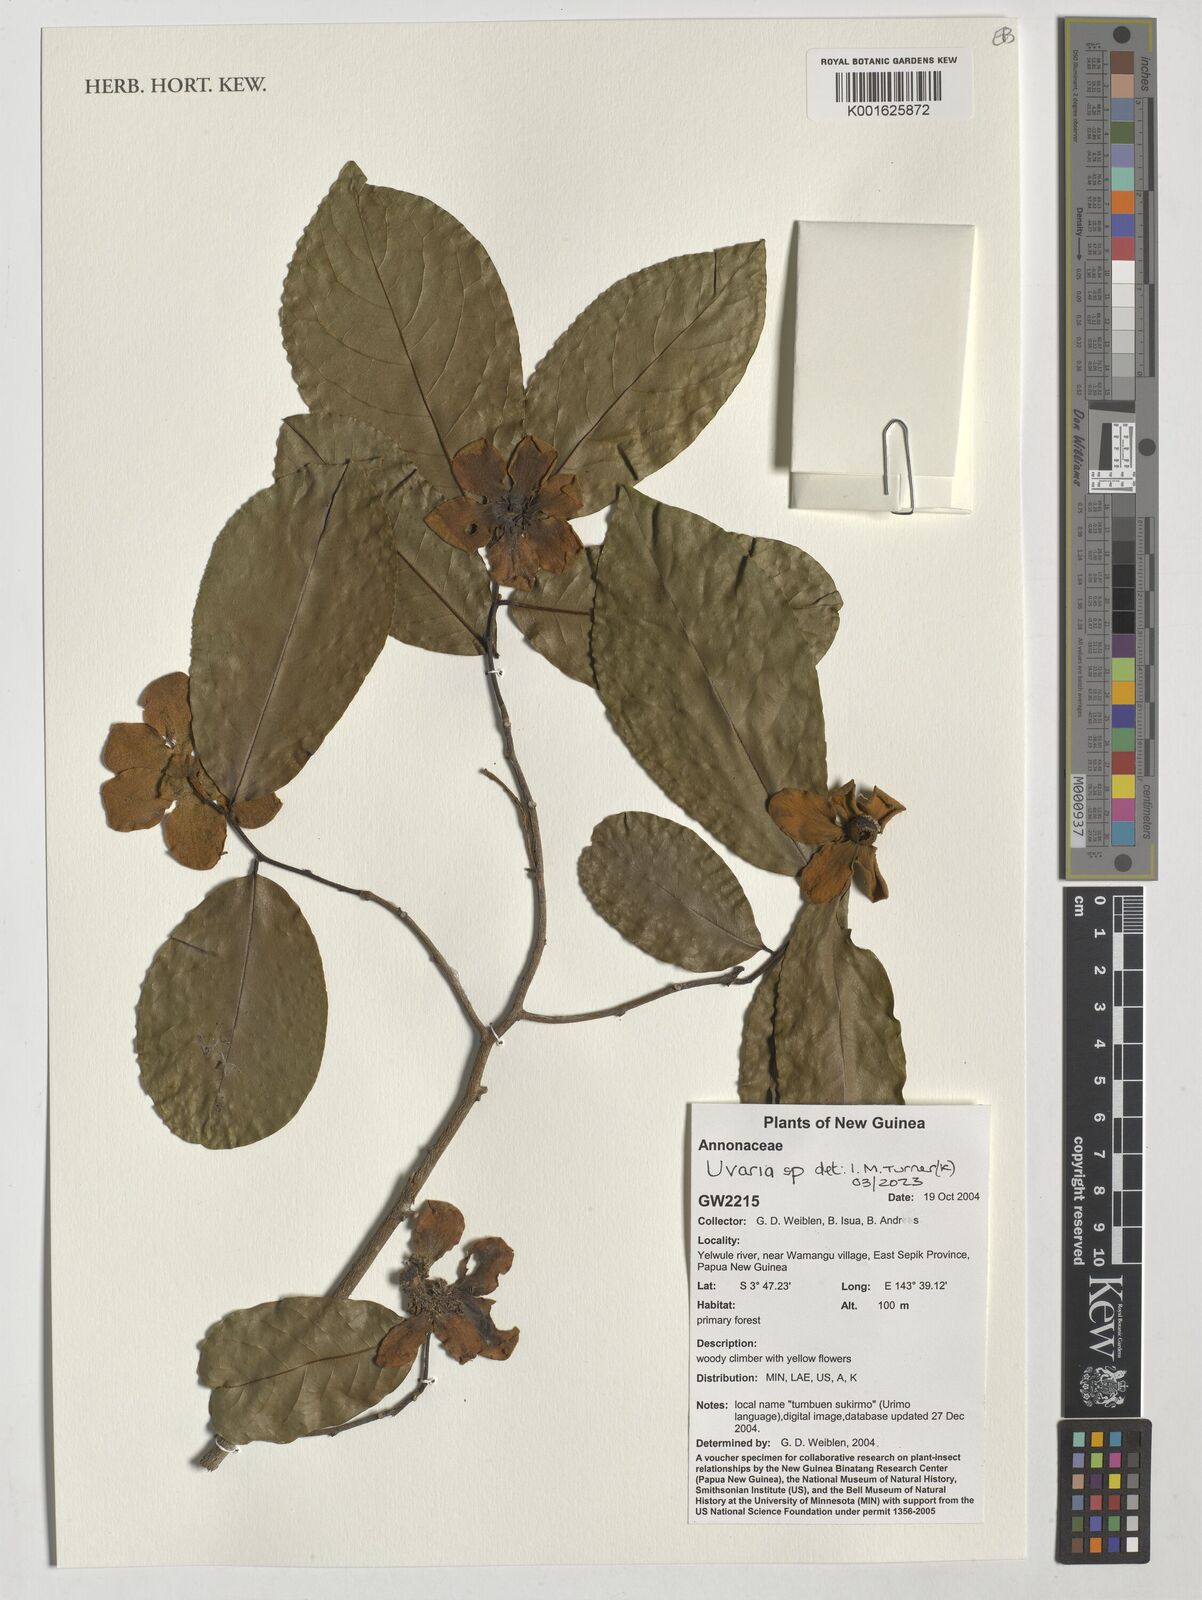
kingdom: Plantae
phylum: Tracheophyta
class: Magnoliopsida
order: Magnoliales
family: Annonaceae
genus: Uvaria
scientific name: Uvaria
